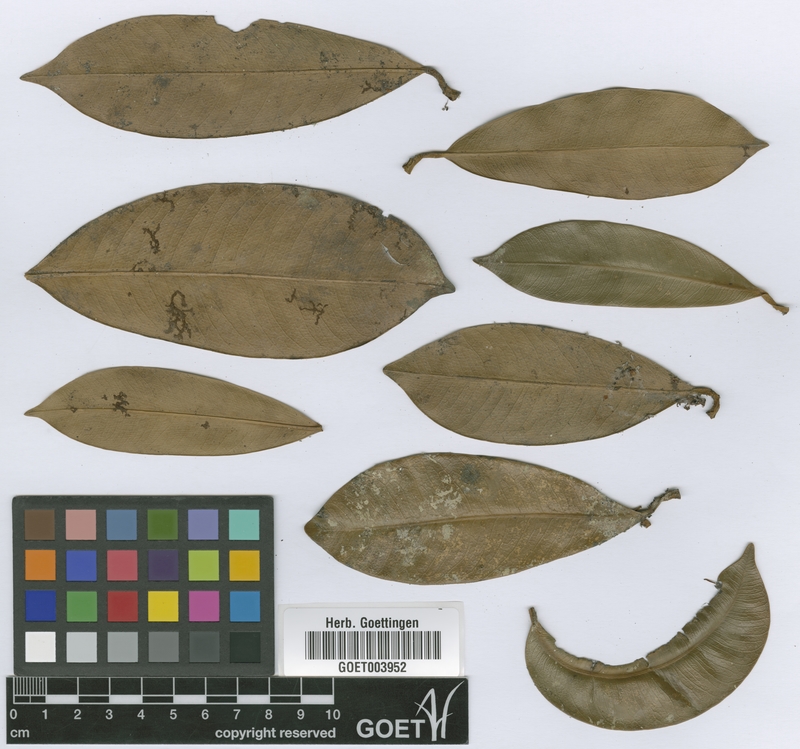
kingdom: Plantae
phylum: Tracheophyta
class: Magnoliopsida
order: Malpighiales
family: Clusiaceae
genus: Garcinia
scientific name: Garcinia smeathmannii
